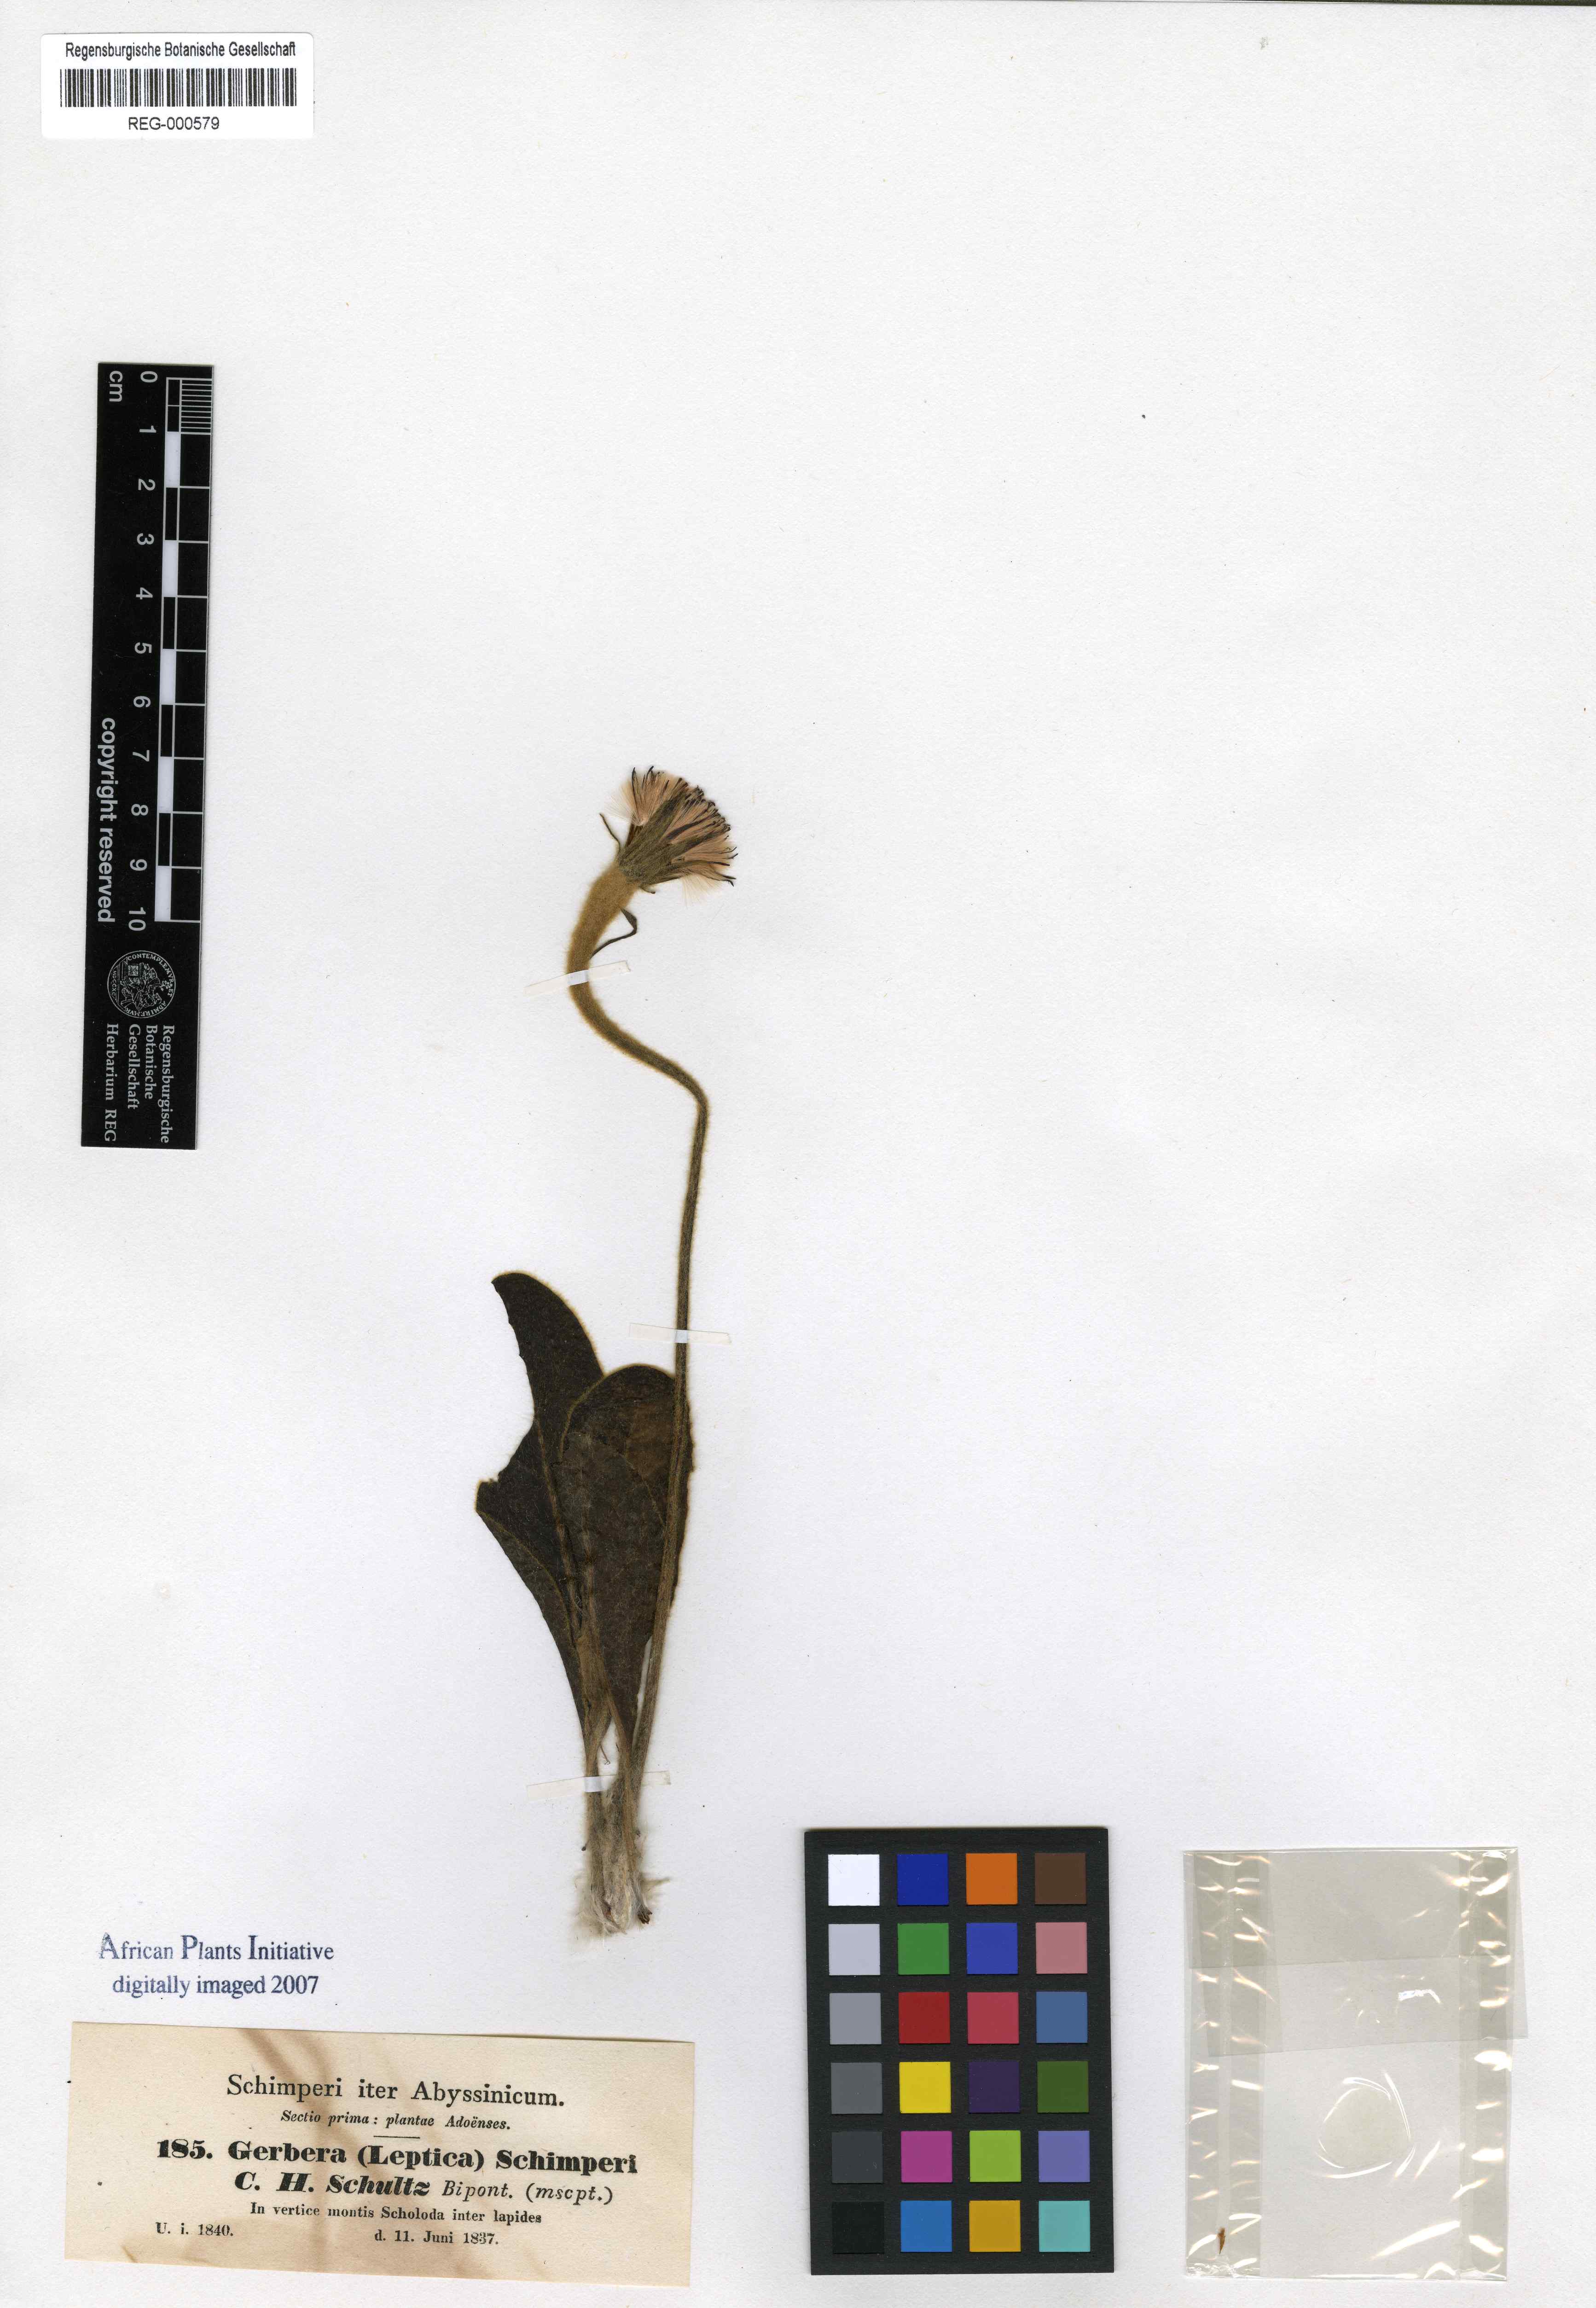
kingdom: Plantae
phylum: Tracheophyta
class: Magnoliopsida
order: Asterales
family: Asteraceae
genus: Piloselloides
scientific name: Piloselloides hirsuta
